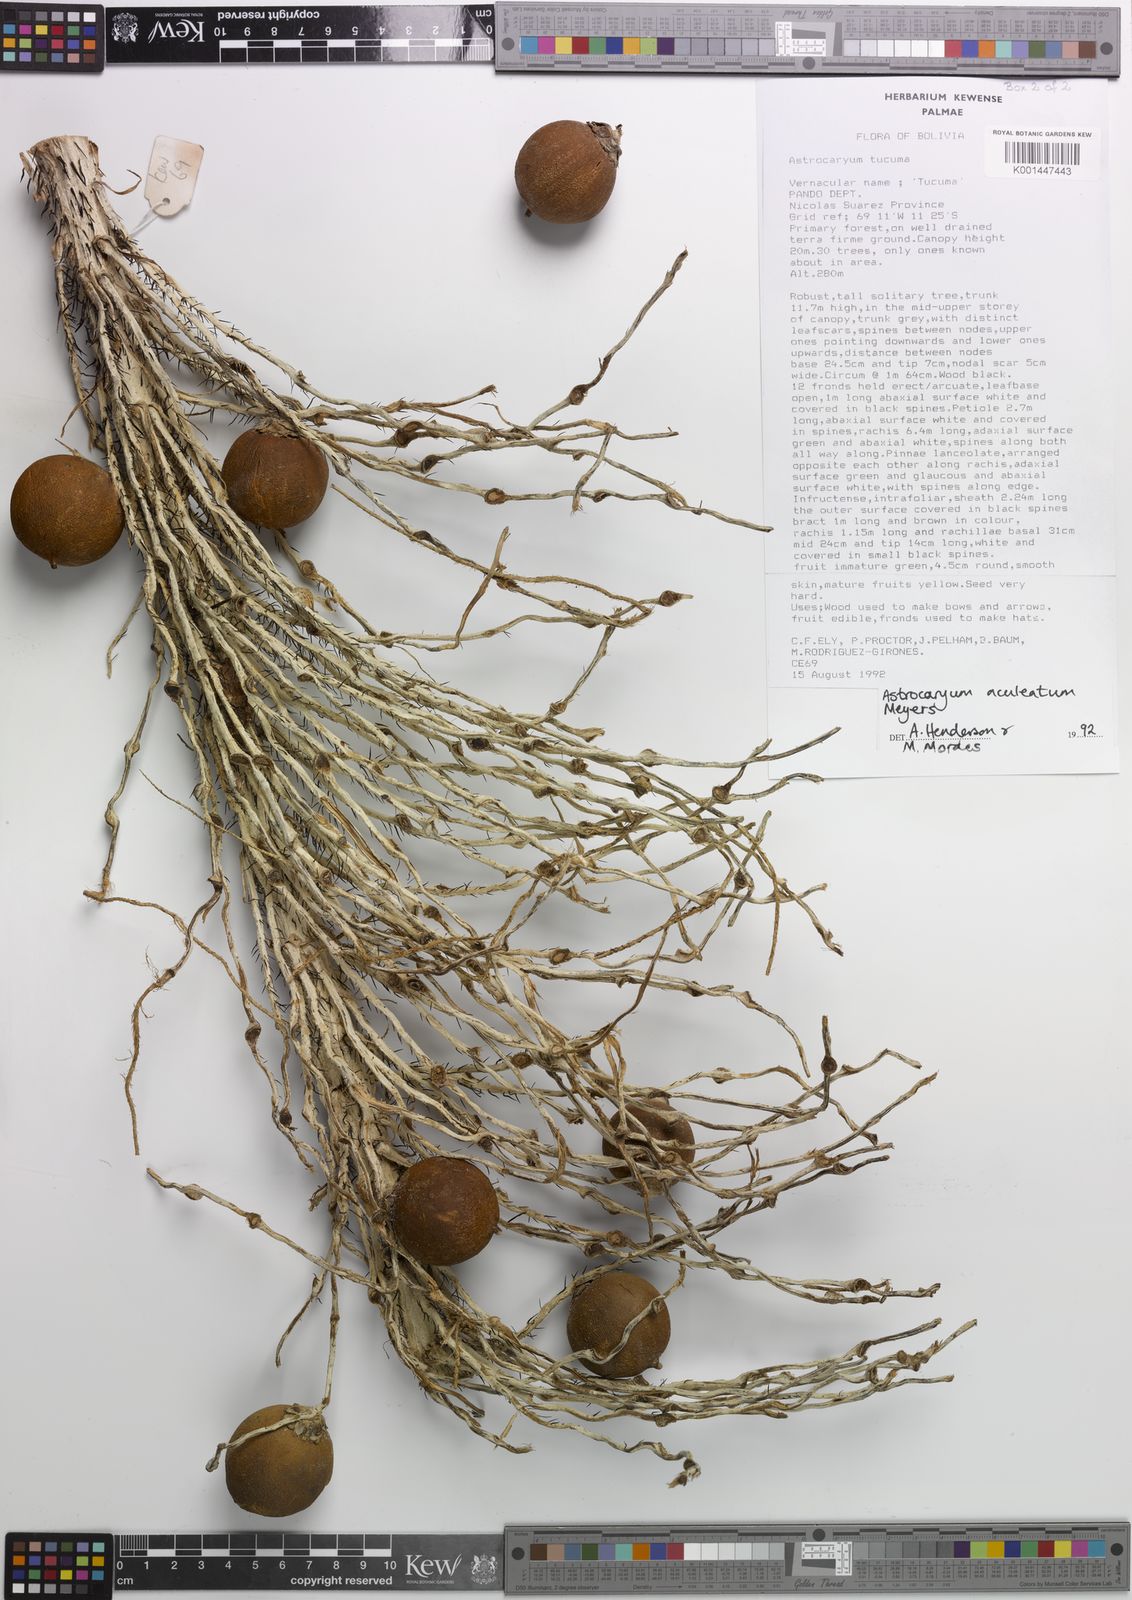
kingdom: Plantae
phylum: Tracheophyta
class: Liliopsida
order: Arecales
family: Arecaceae
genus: Astrocaryum
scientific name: Astrocaryum aculeatum
